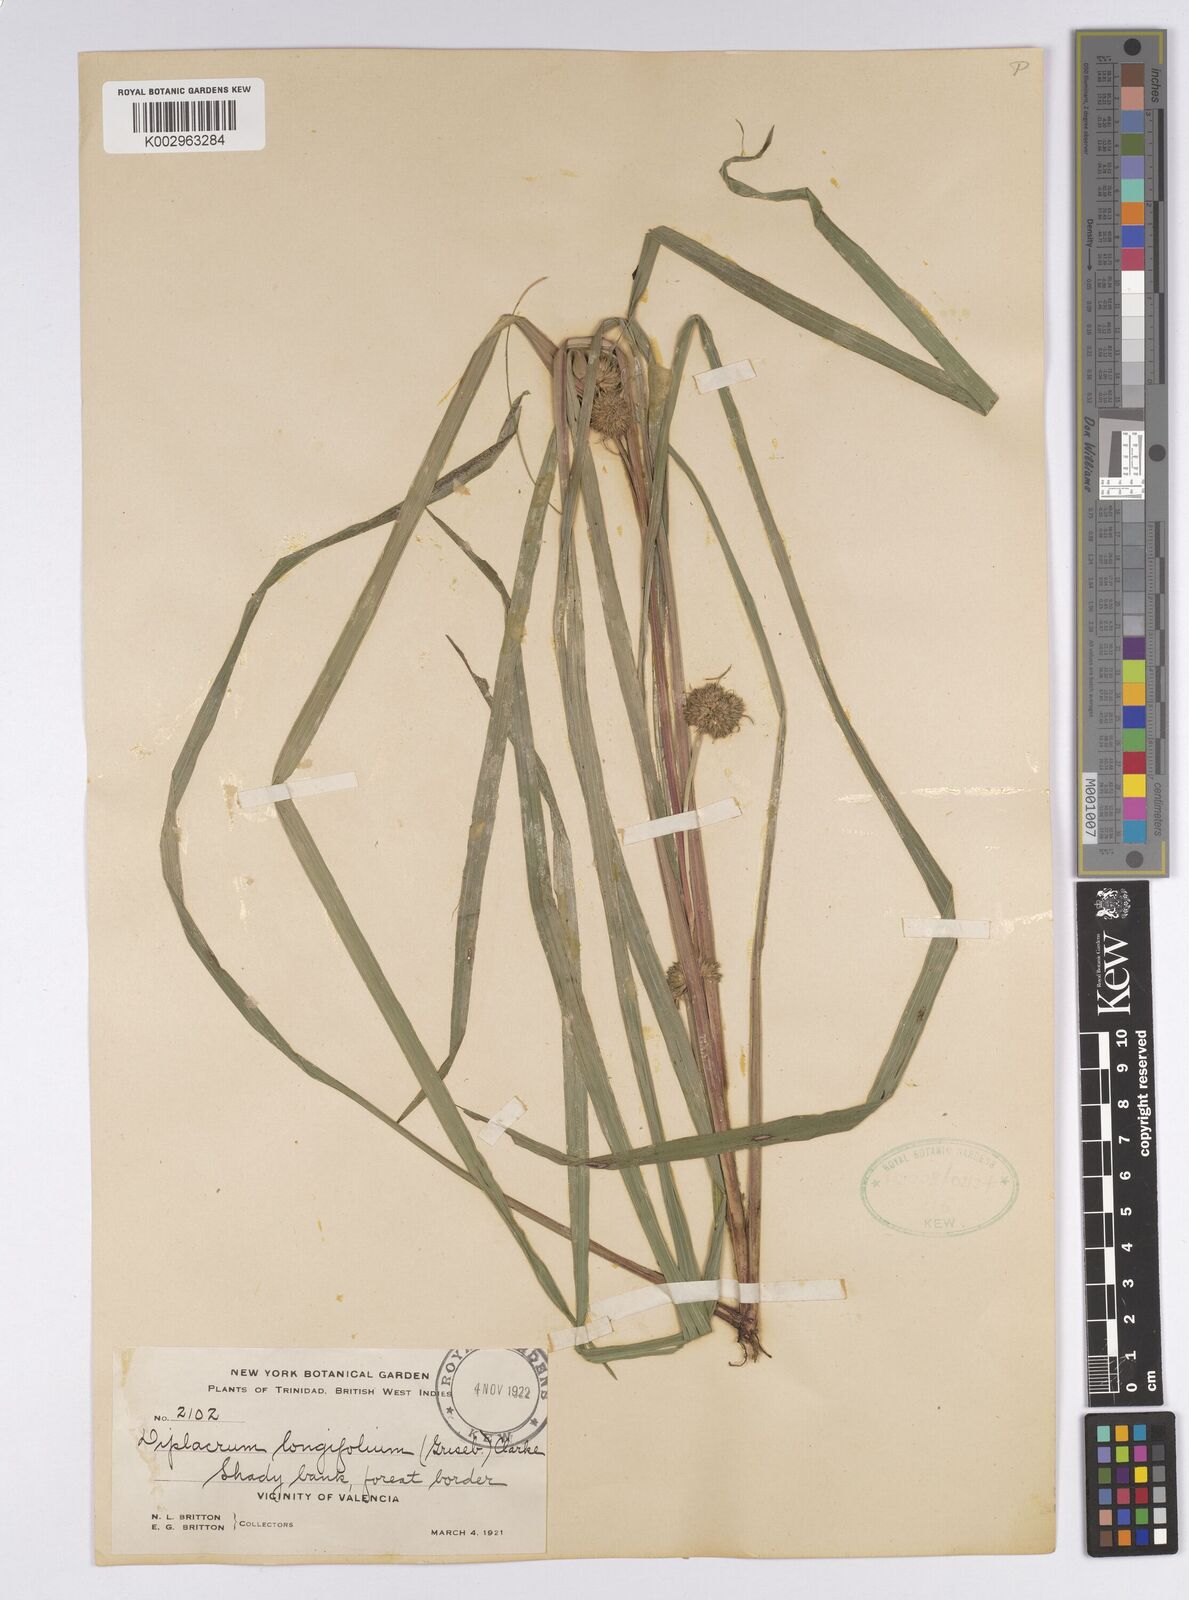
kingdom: Plantae
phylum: Tracheophyta
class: Liliopsida
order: Poales
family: Cyperaceae
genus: Diplacrum
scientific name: Diplacrum capitatum
